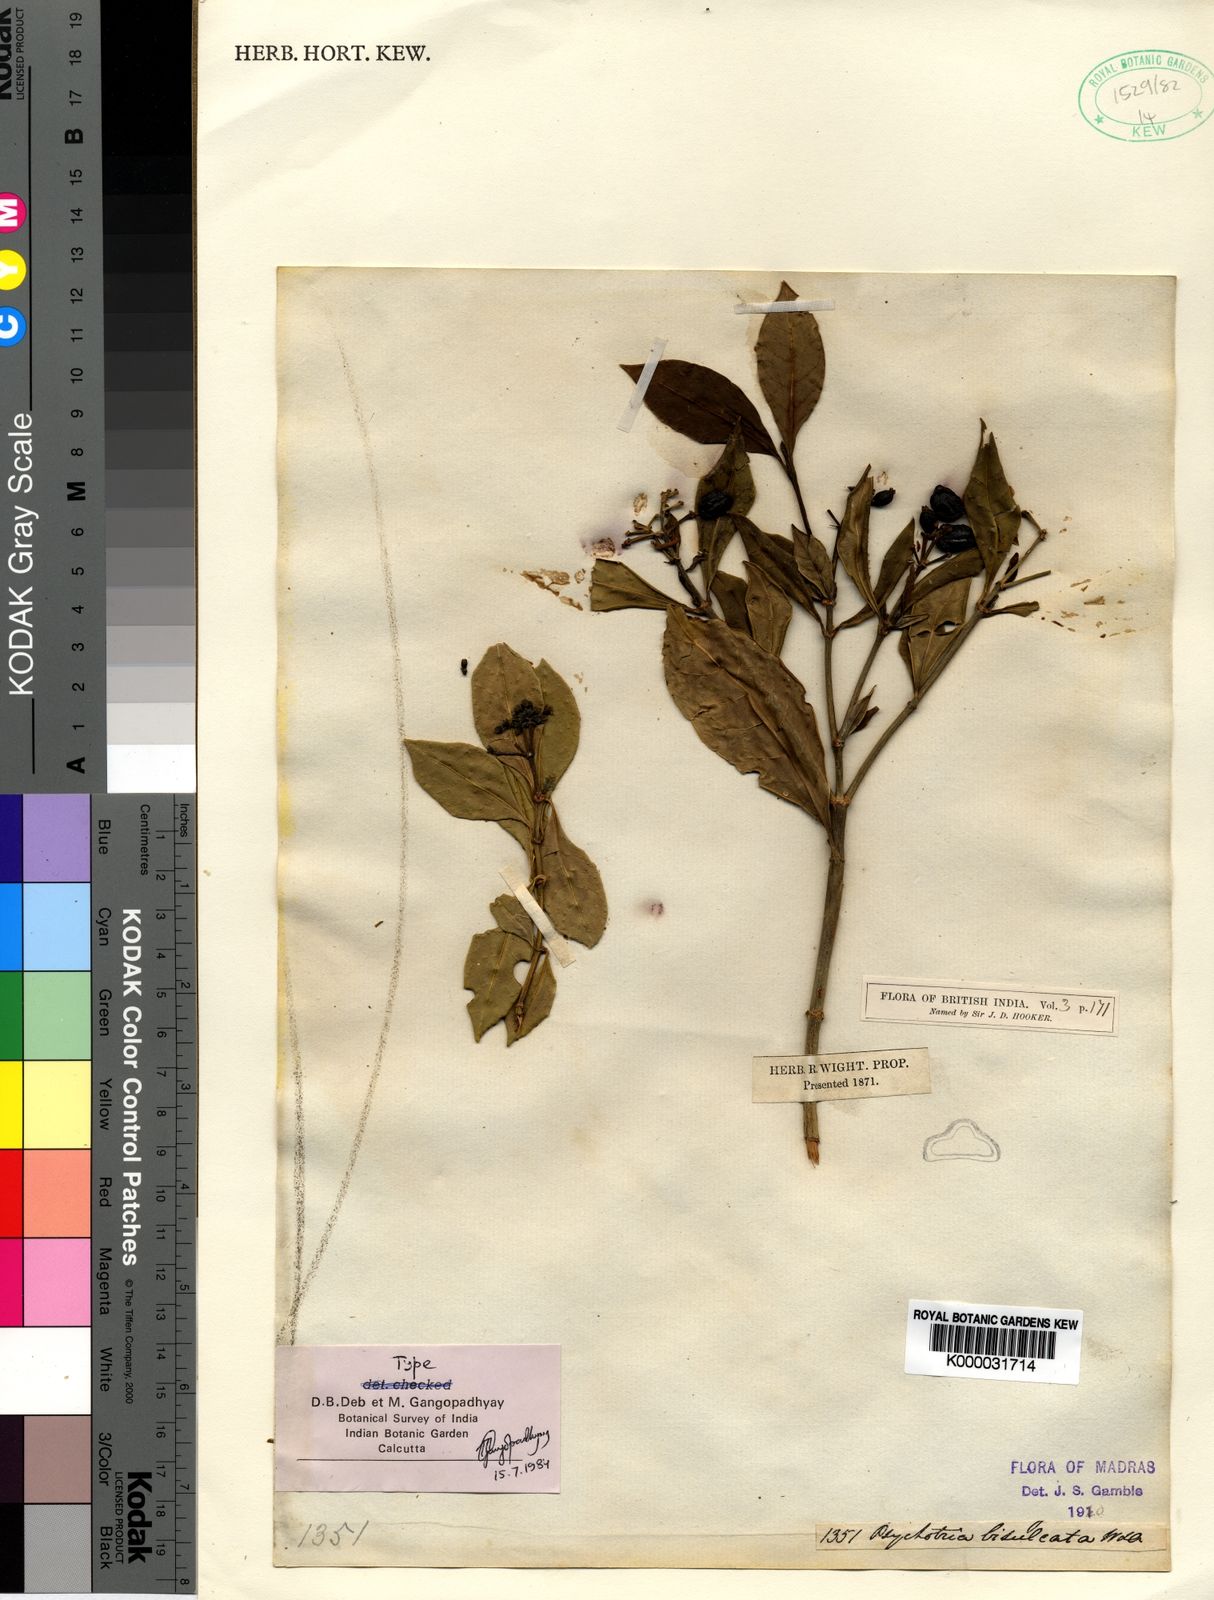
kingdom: Plantae
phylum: Tracheophyta
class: Magnoliopsida
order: Gentianales
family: Rubiaceae
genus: Psychotria
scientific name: Psychotria bisulcata
